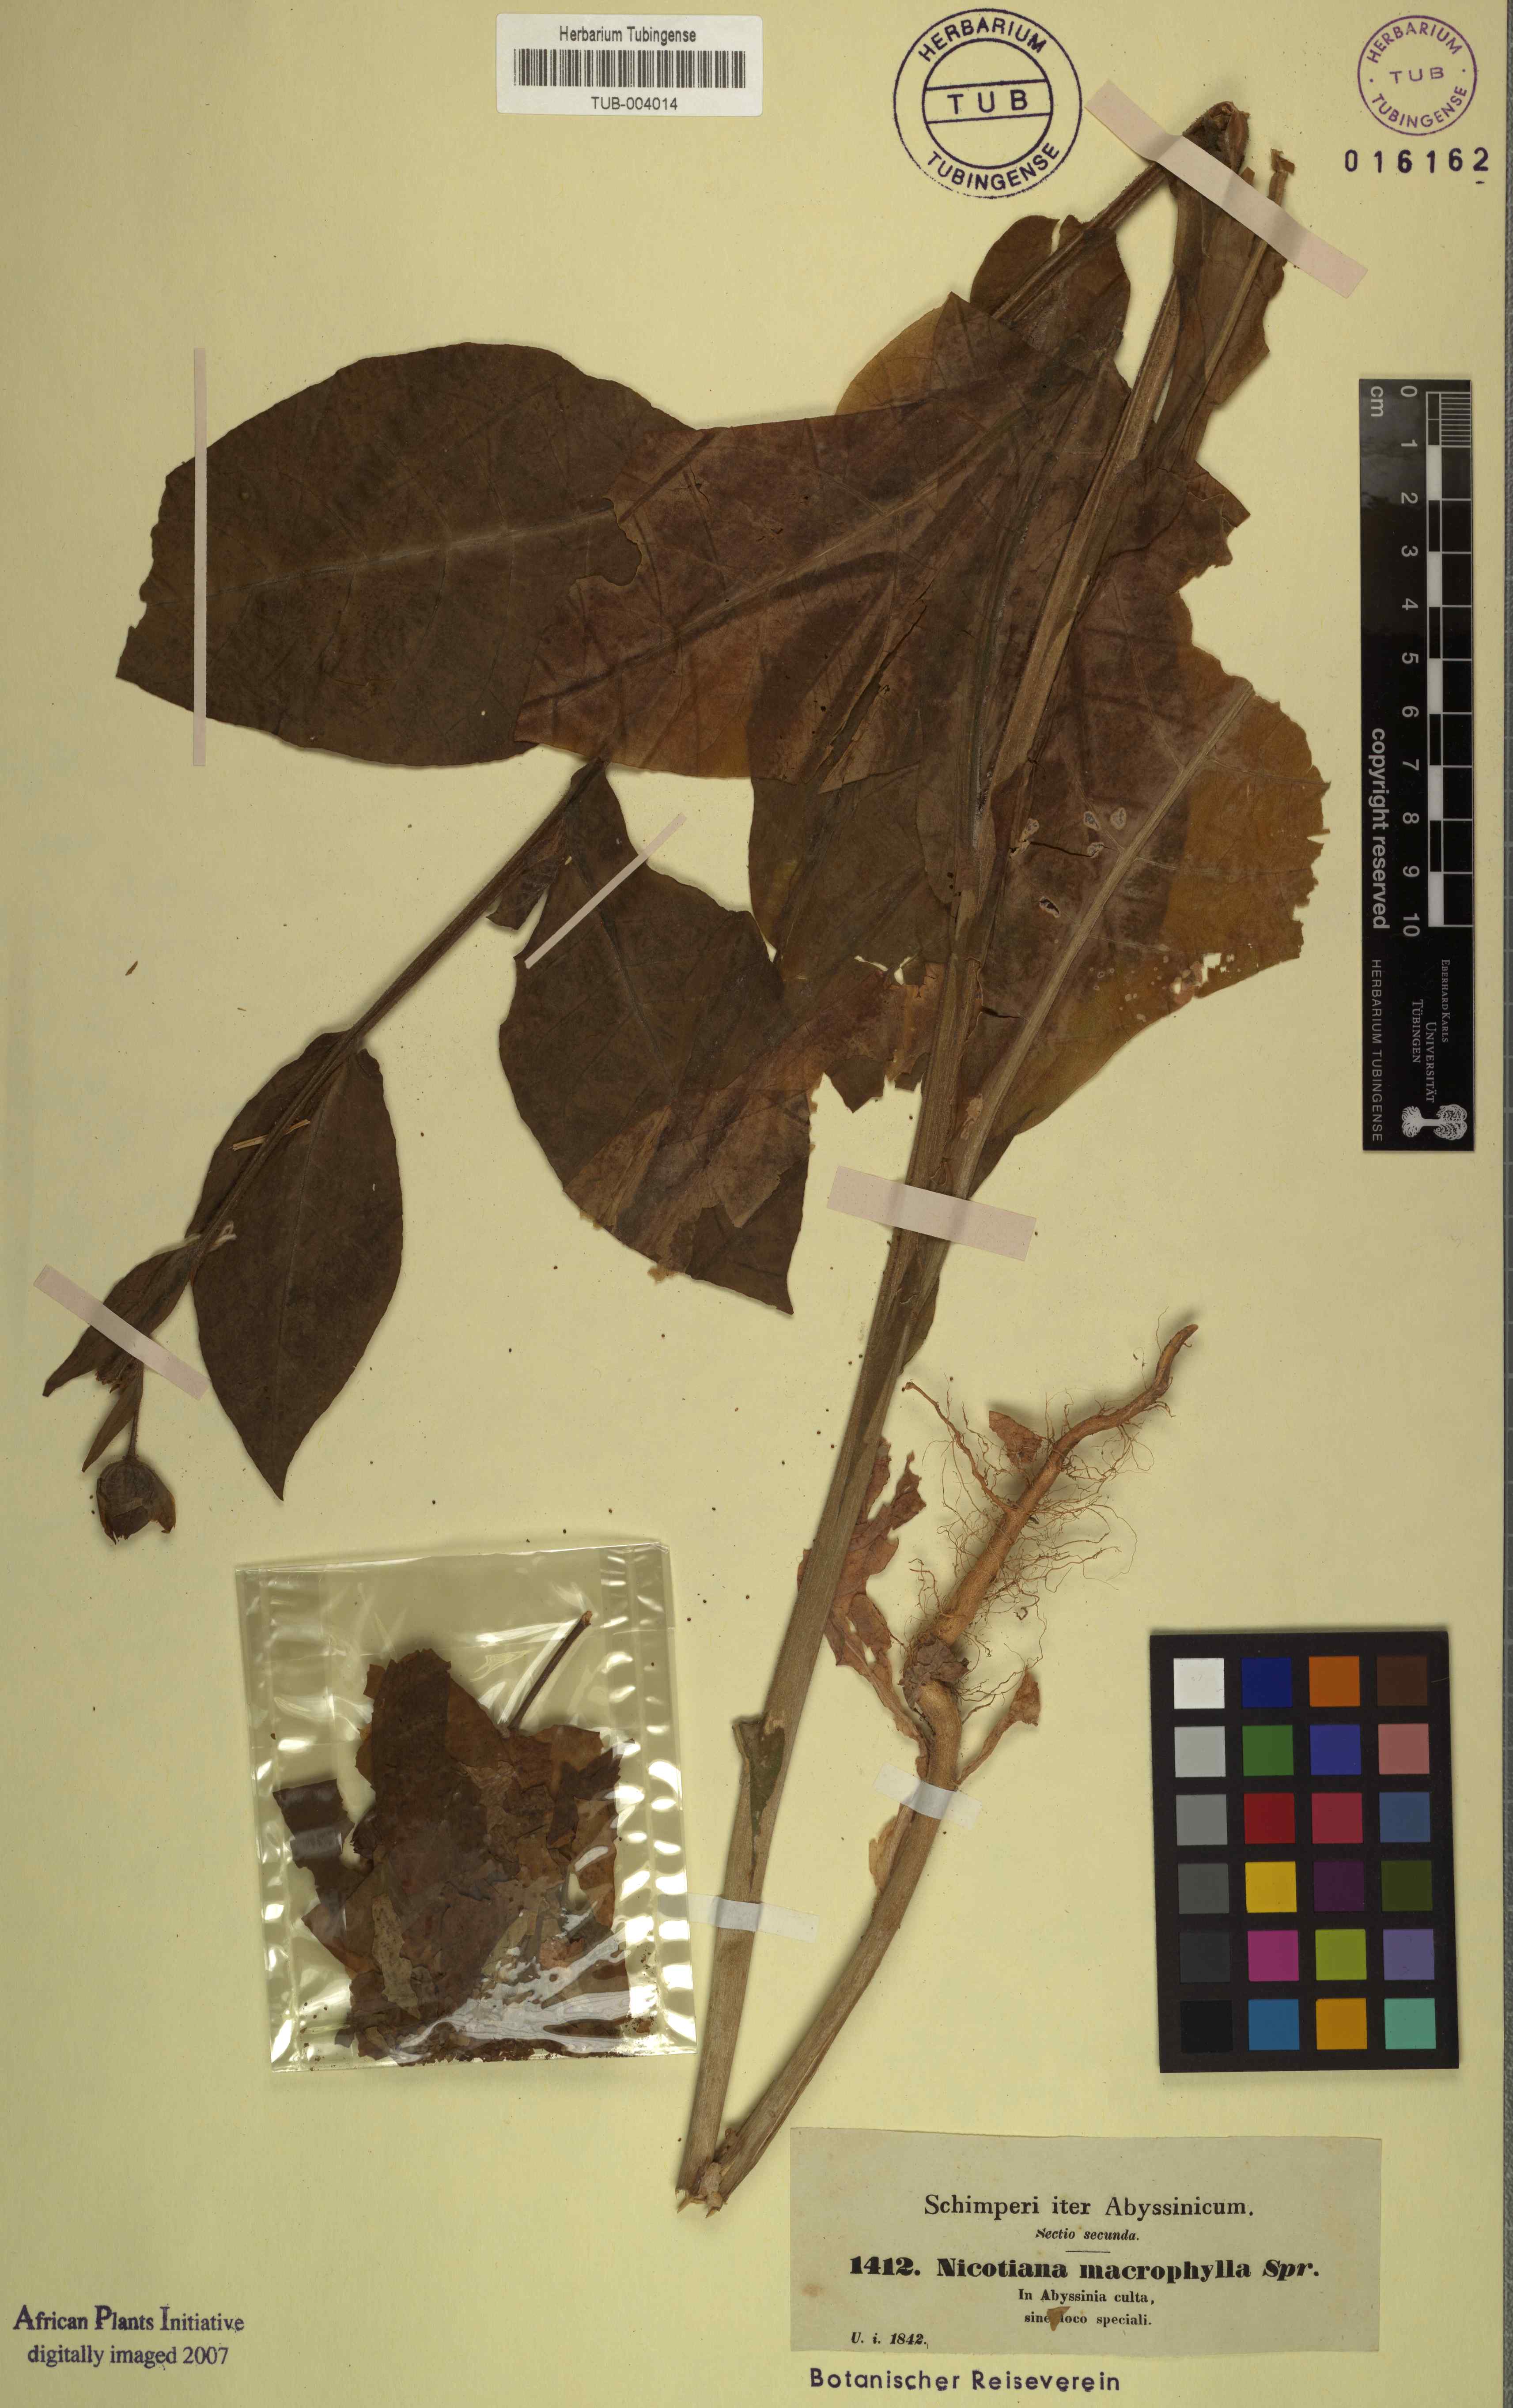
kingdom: Plantae
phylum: Tracheophyta
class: Magnoliopsida
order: Solanales
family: Solanaceae
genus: Nicotiana
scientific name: Nicotiana tabacum
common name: Tobacco
